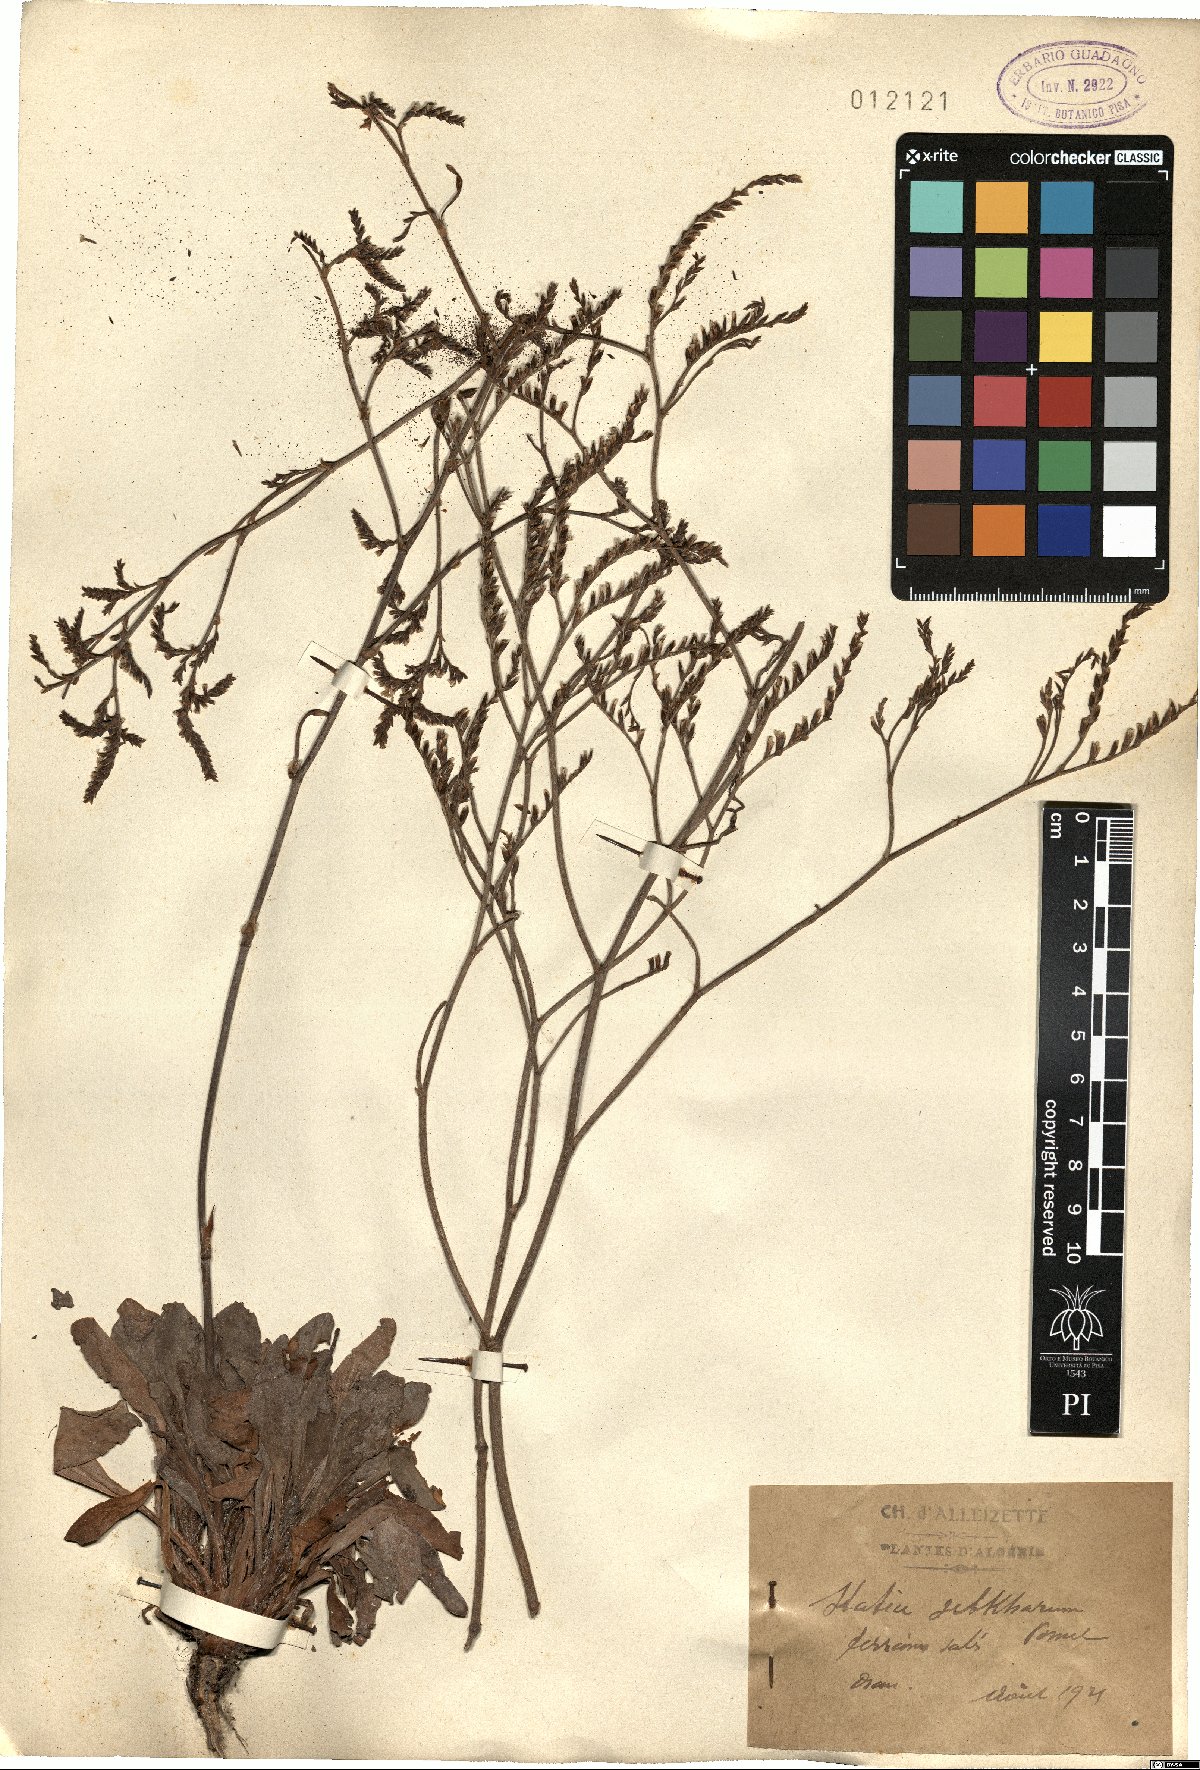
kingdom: Plantae
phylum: Tracheophyta
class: Magnoliopsida
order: Caryophyllales
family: Plumbaginaceae
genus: Limonium
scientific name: Limonium cymuliferum
